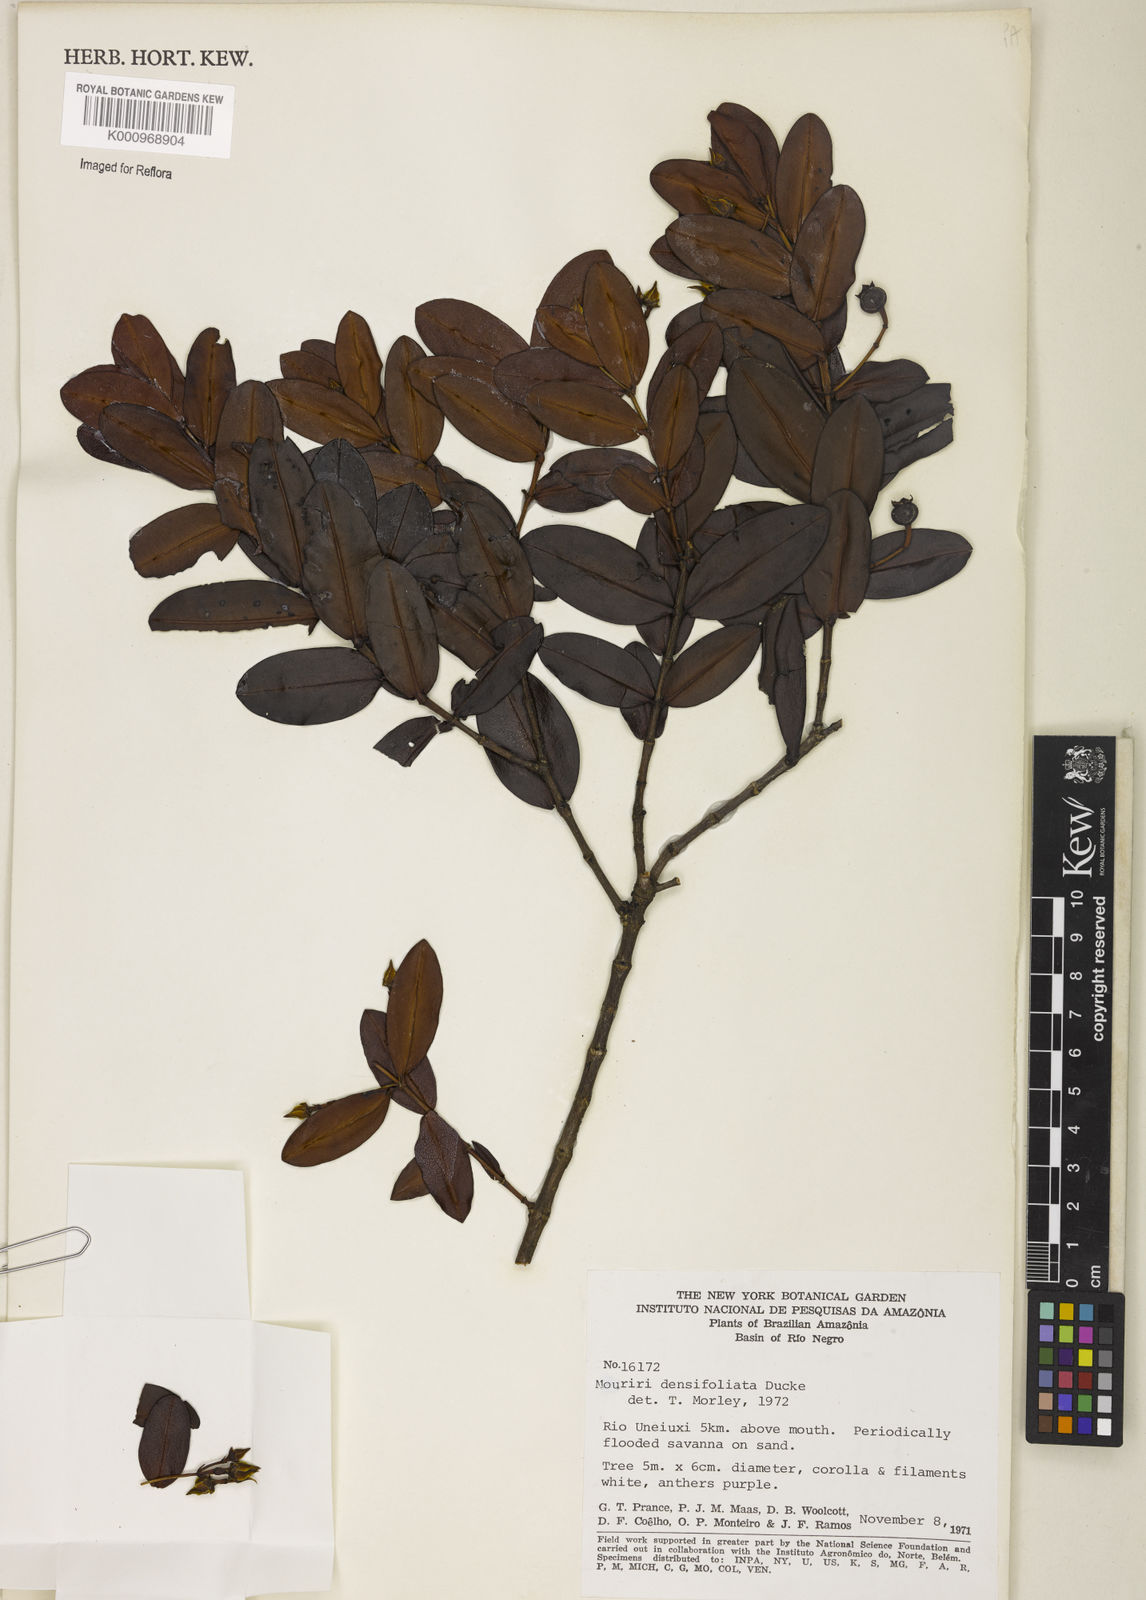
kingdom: Plantae
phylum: Tracheophyta
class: Magnoliopsida
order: Myrtales
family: Melastomataceae
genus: Mouriri
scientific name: Mouriri densifoliata
